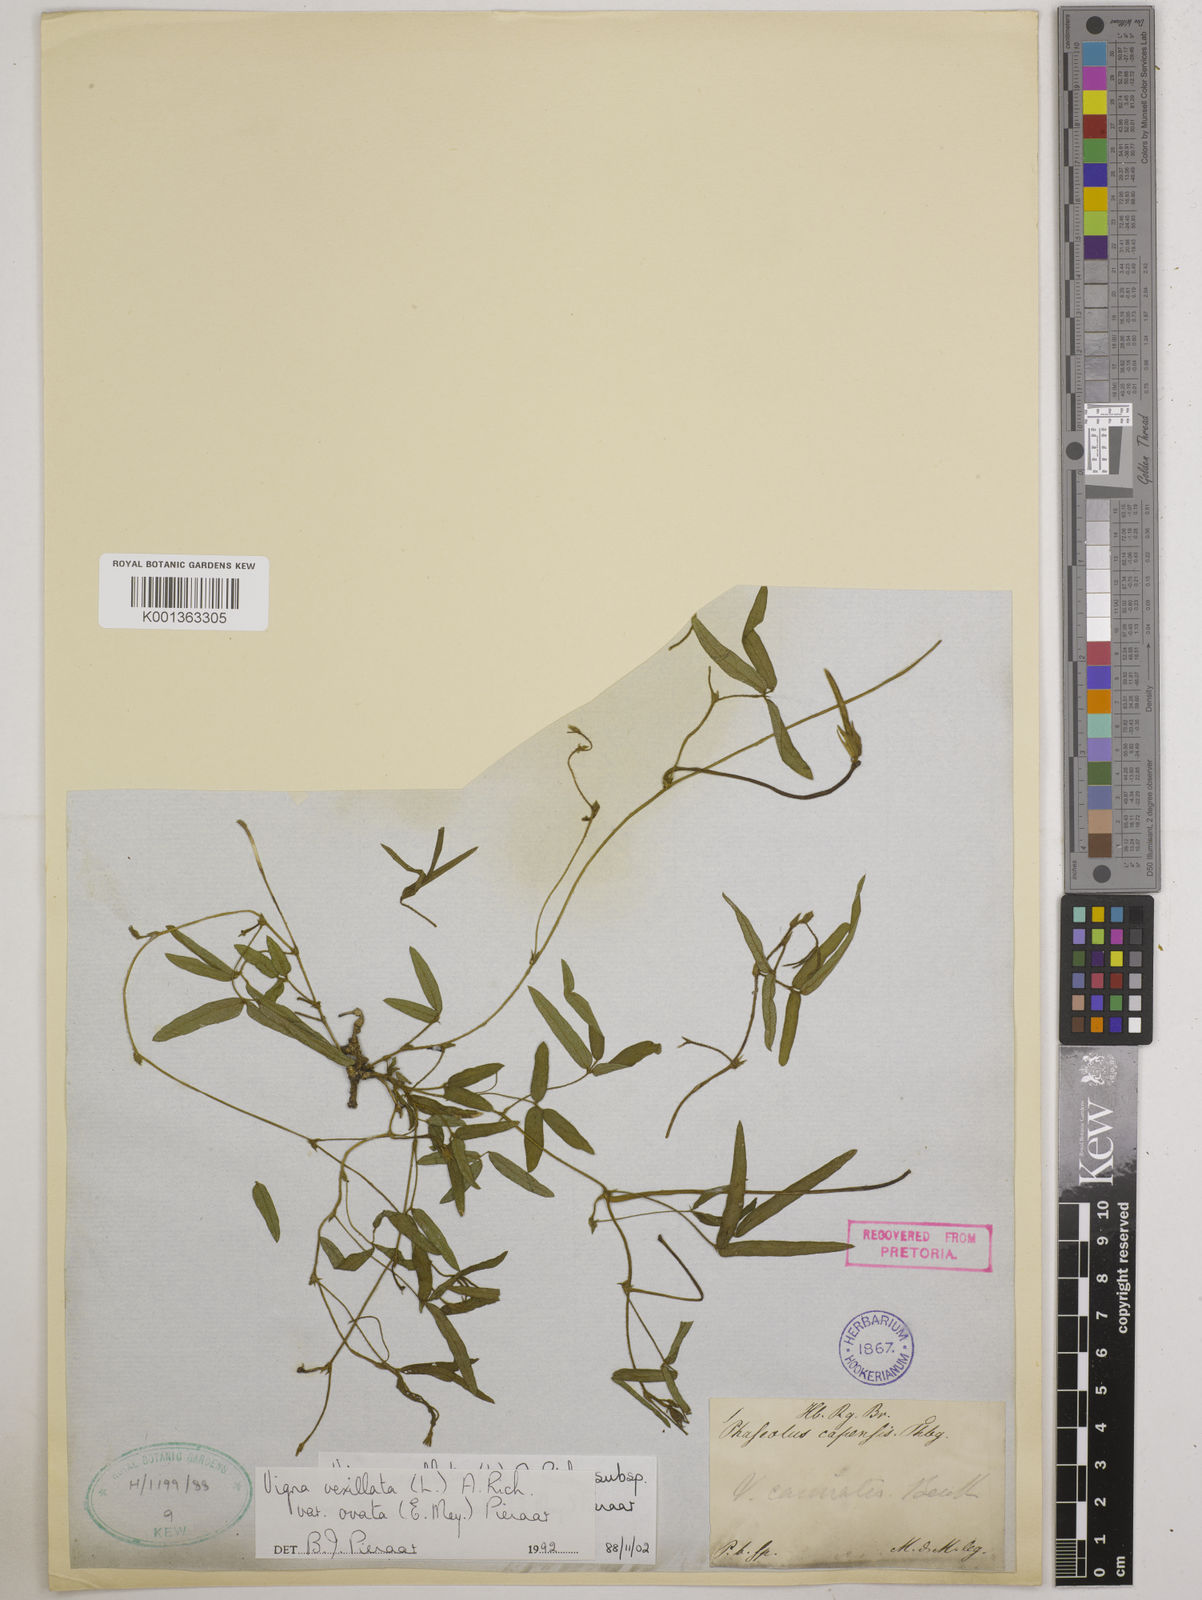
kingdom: Plantae
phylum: Tracheophyta
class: Magnoliopsida
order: Fabales
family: Fabaceae
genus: Vigna
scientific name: Vigna
